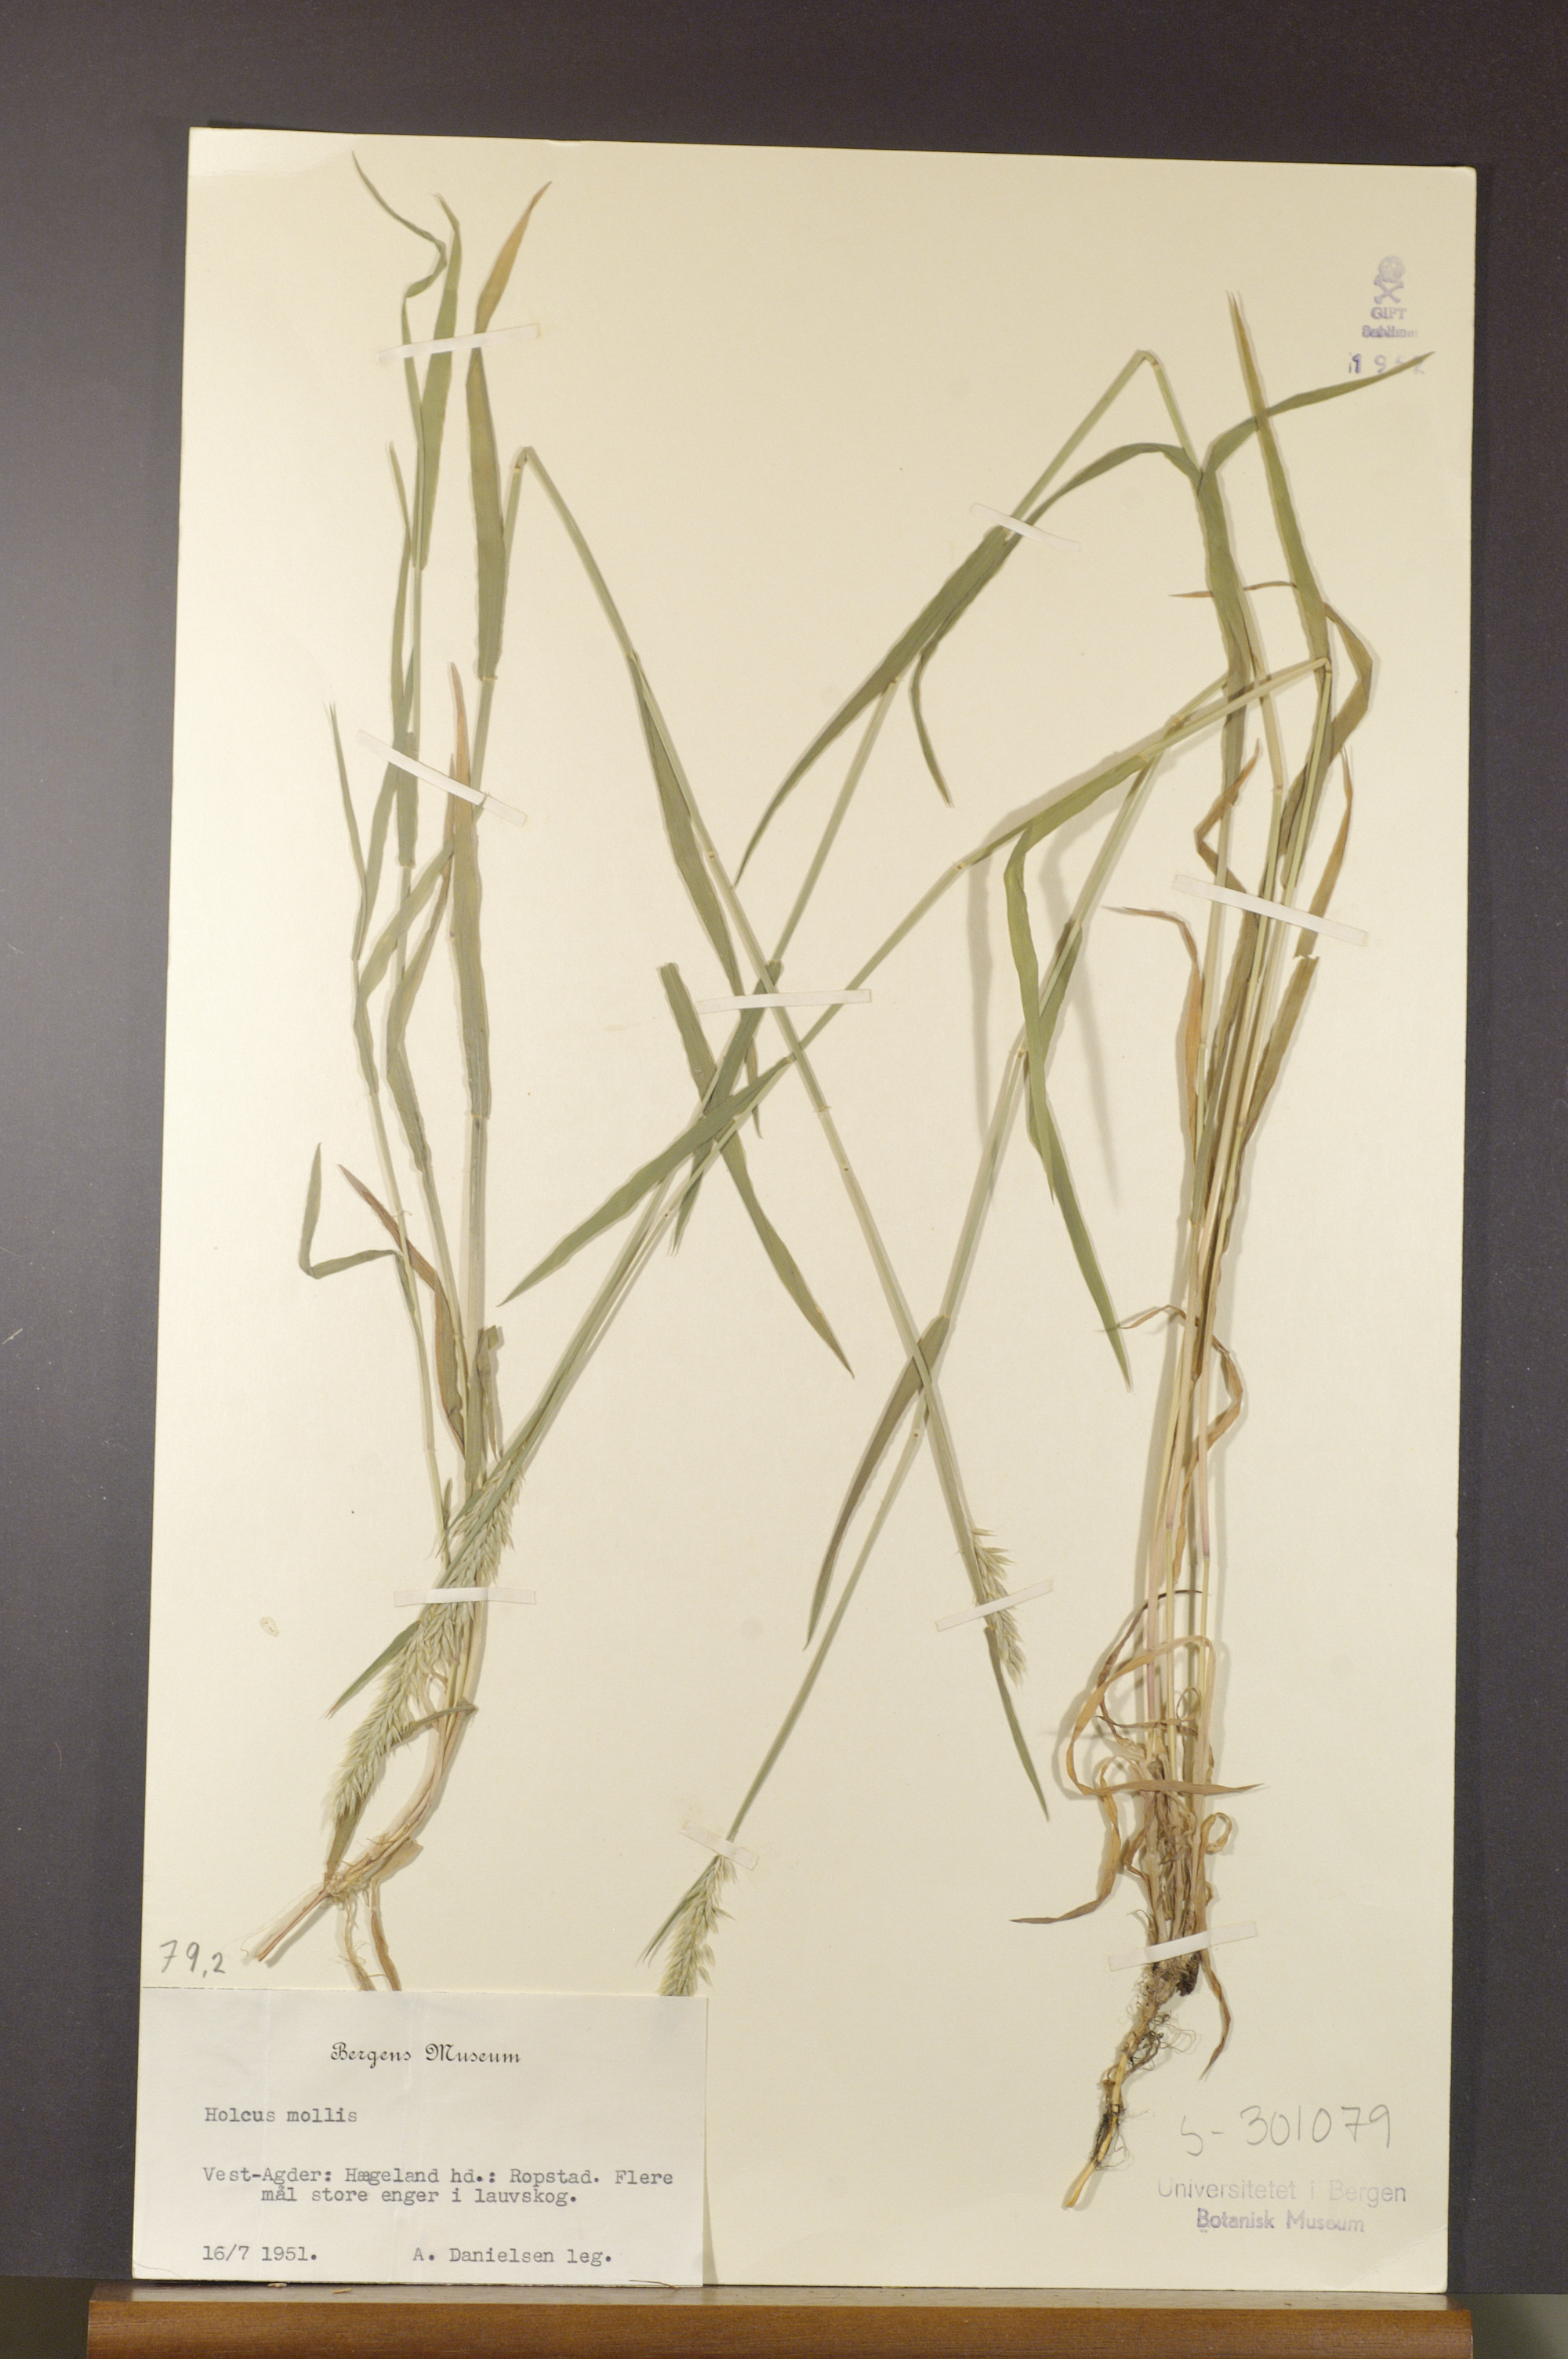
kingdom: Plantae
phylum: Tracheophyta
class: Liliopsida
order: Poales
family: Poaceae
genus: Holcus
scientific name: Holcus mollis
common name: Creeping velvetgrass
